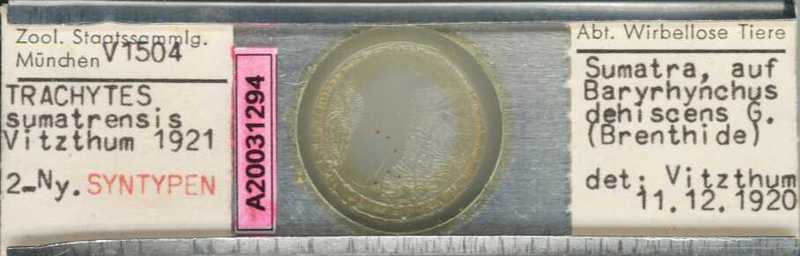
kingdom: Animalia
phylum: Arthropoda
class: Arachnida
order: Mesostigmata
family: Polyaspididae
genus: Trachytes
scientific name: Trachytes
